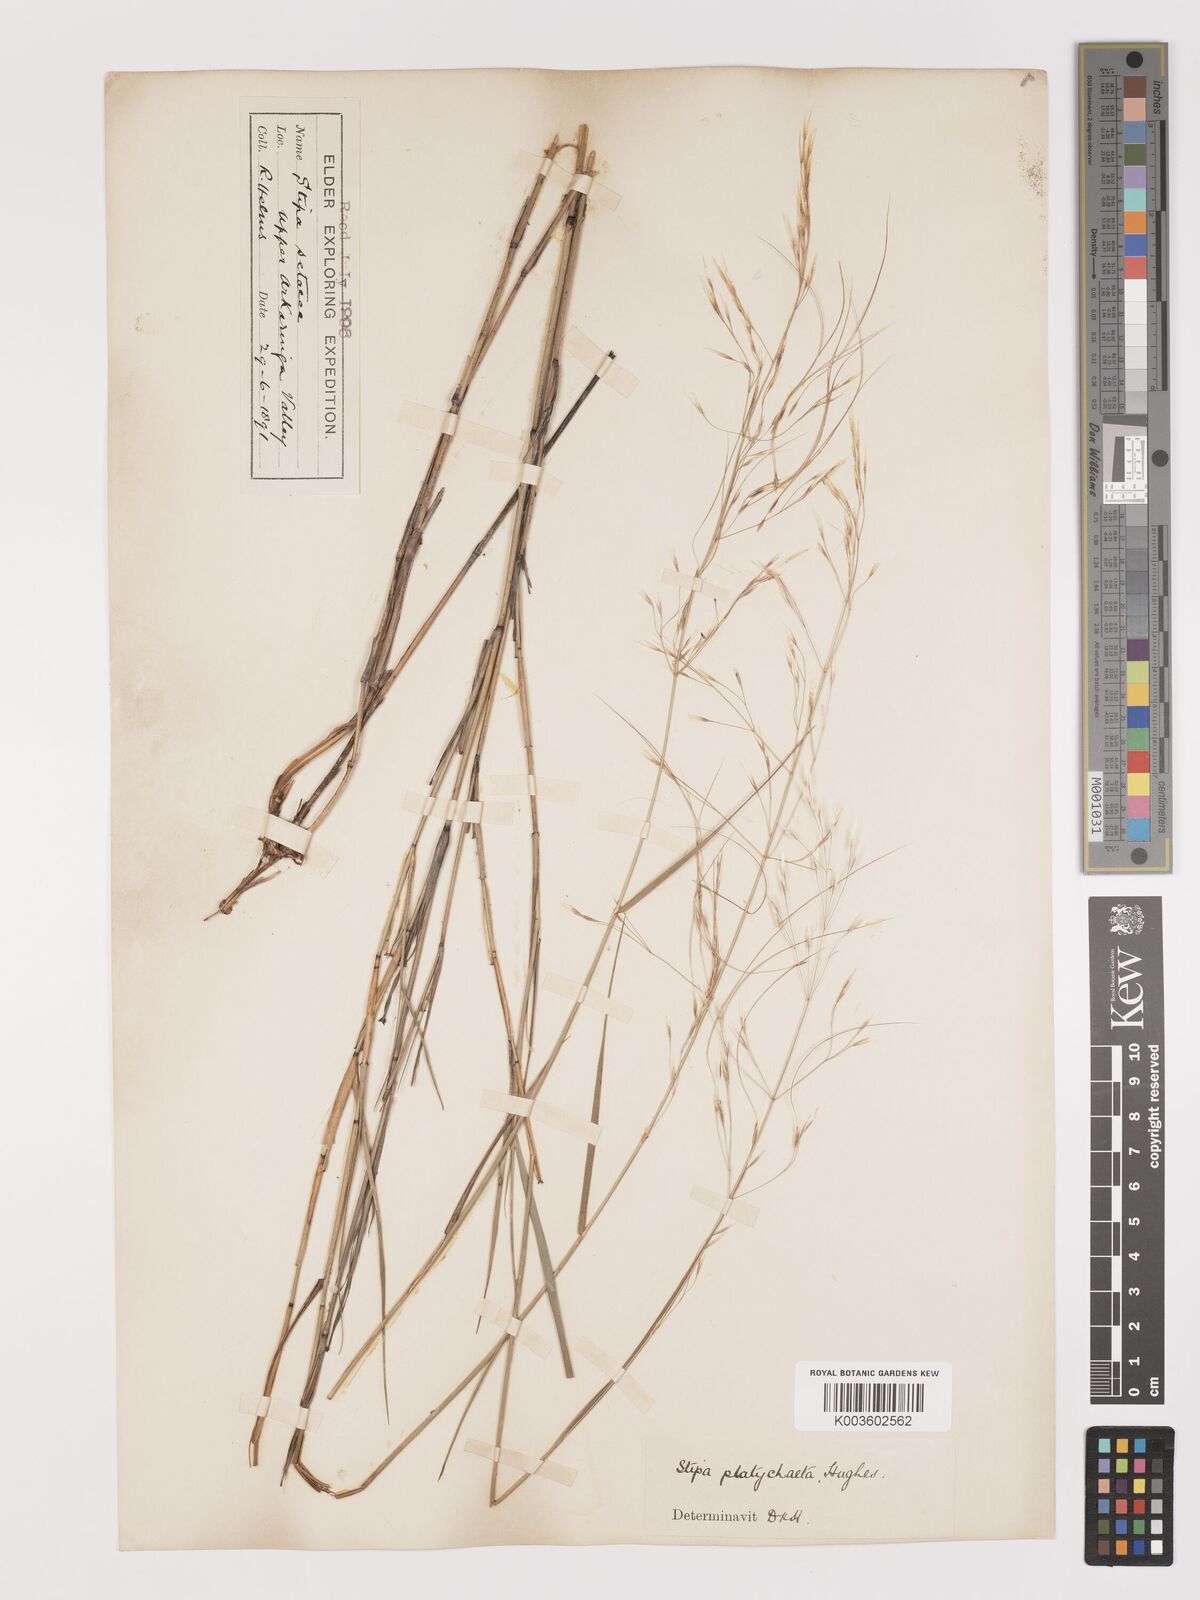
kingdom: Plantae
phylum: Tracheophyta
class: Liliopsida
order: Poales
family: Poaceae
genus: Austrostipa
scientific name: Austrostipa platychaeta
